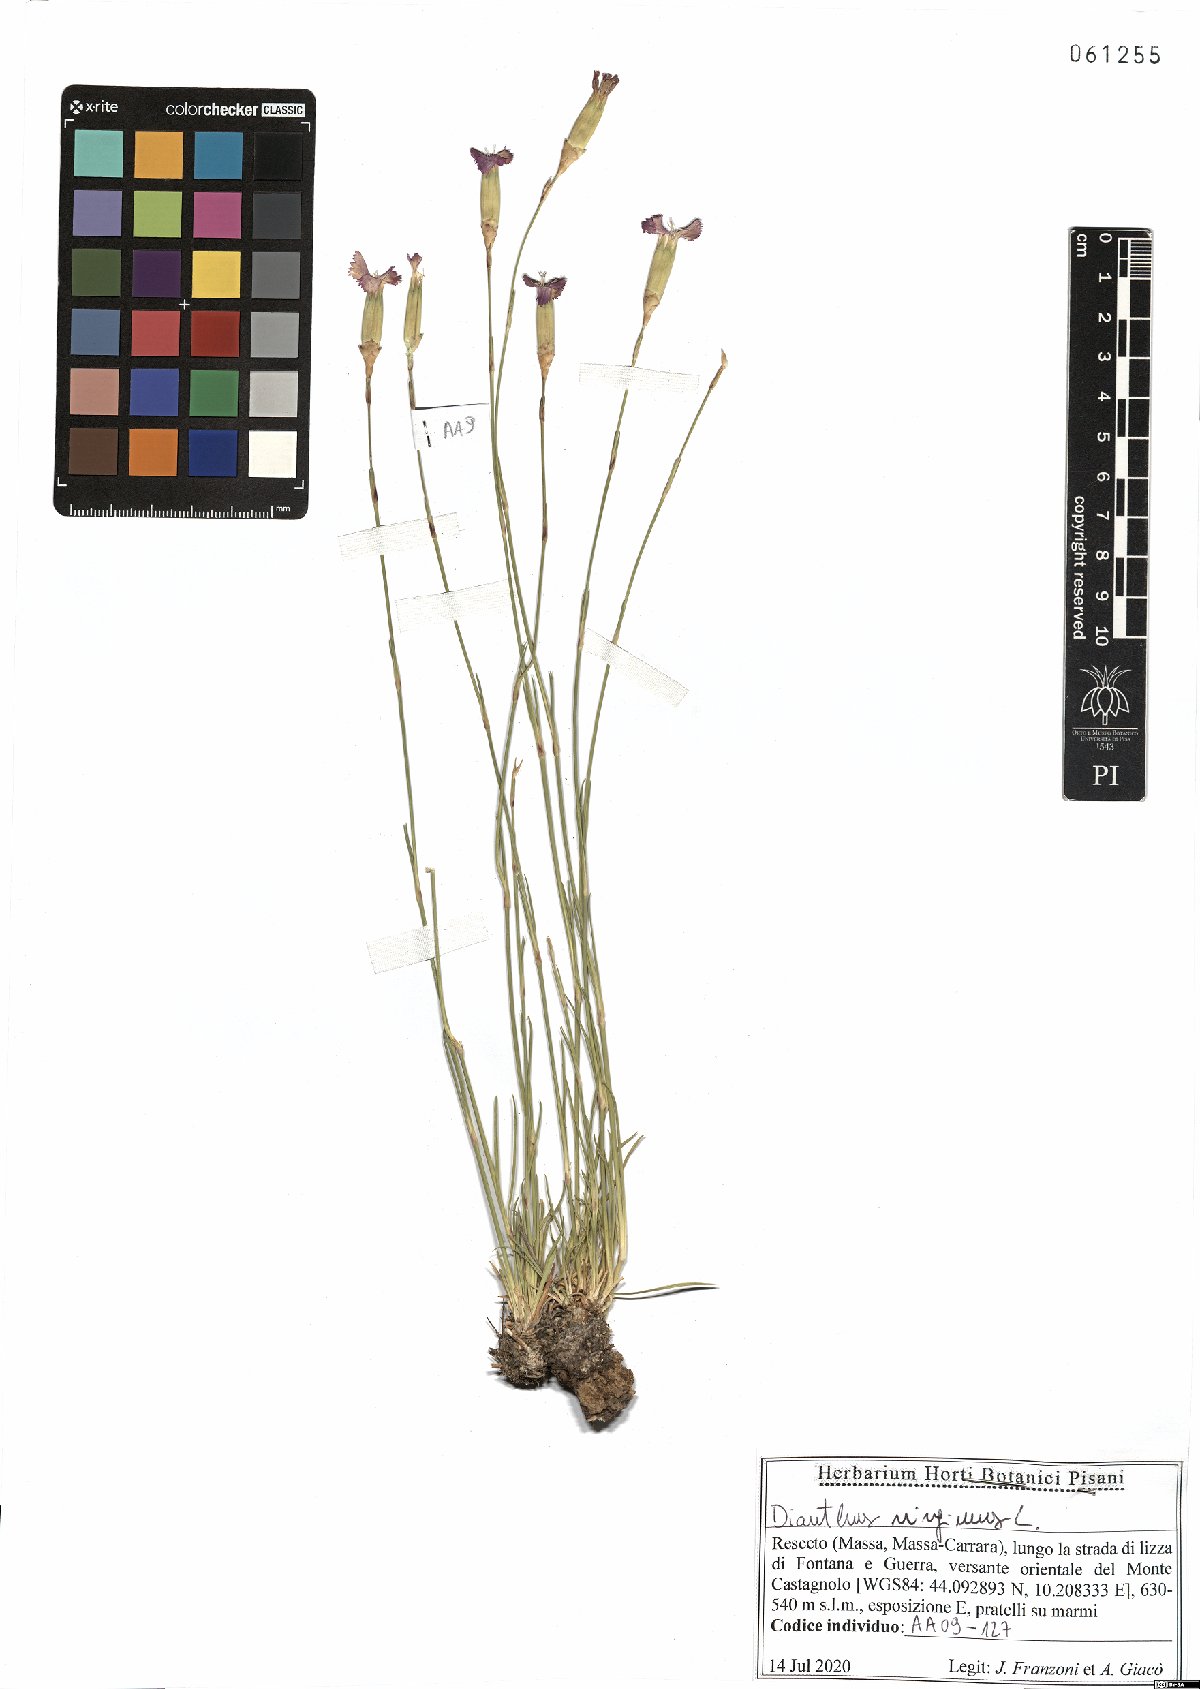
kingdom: Plantae
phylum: Tracheophyta
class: Magnoliopsida
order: Caryophyllales
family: Caryophyllaceae
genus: Dianthus
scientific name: Dianthus virgineus
